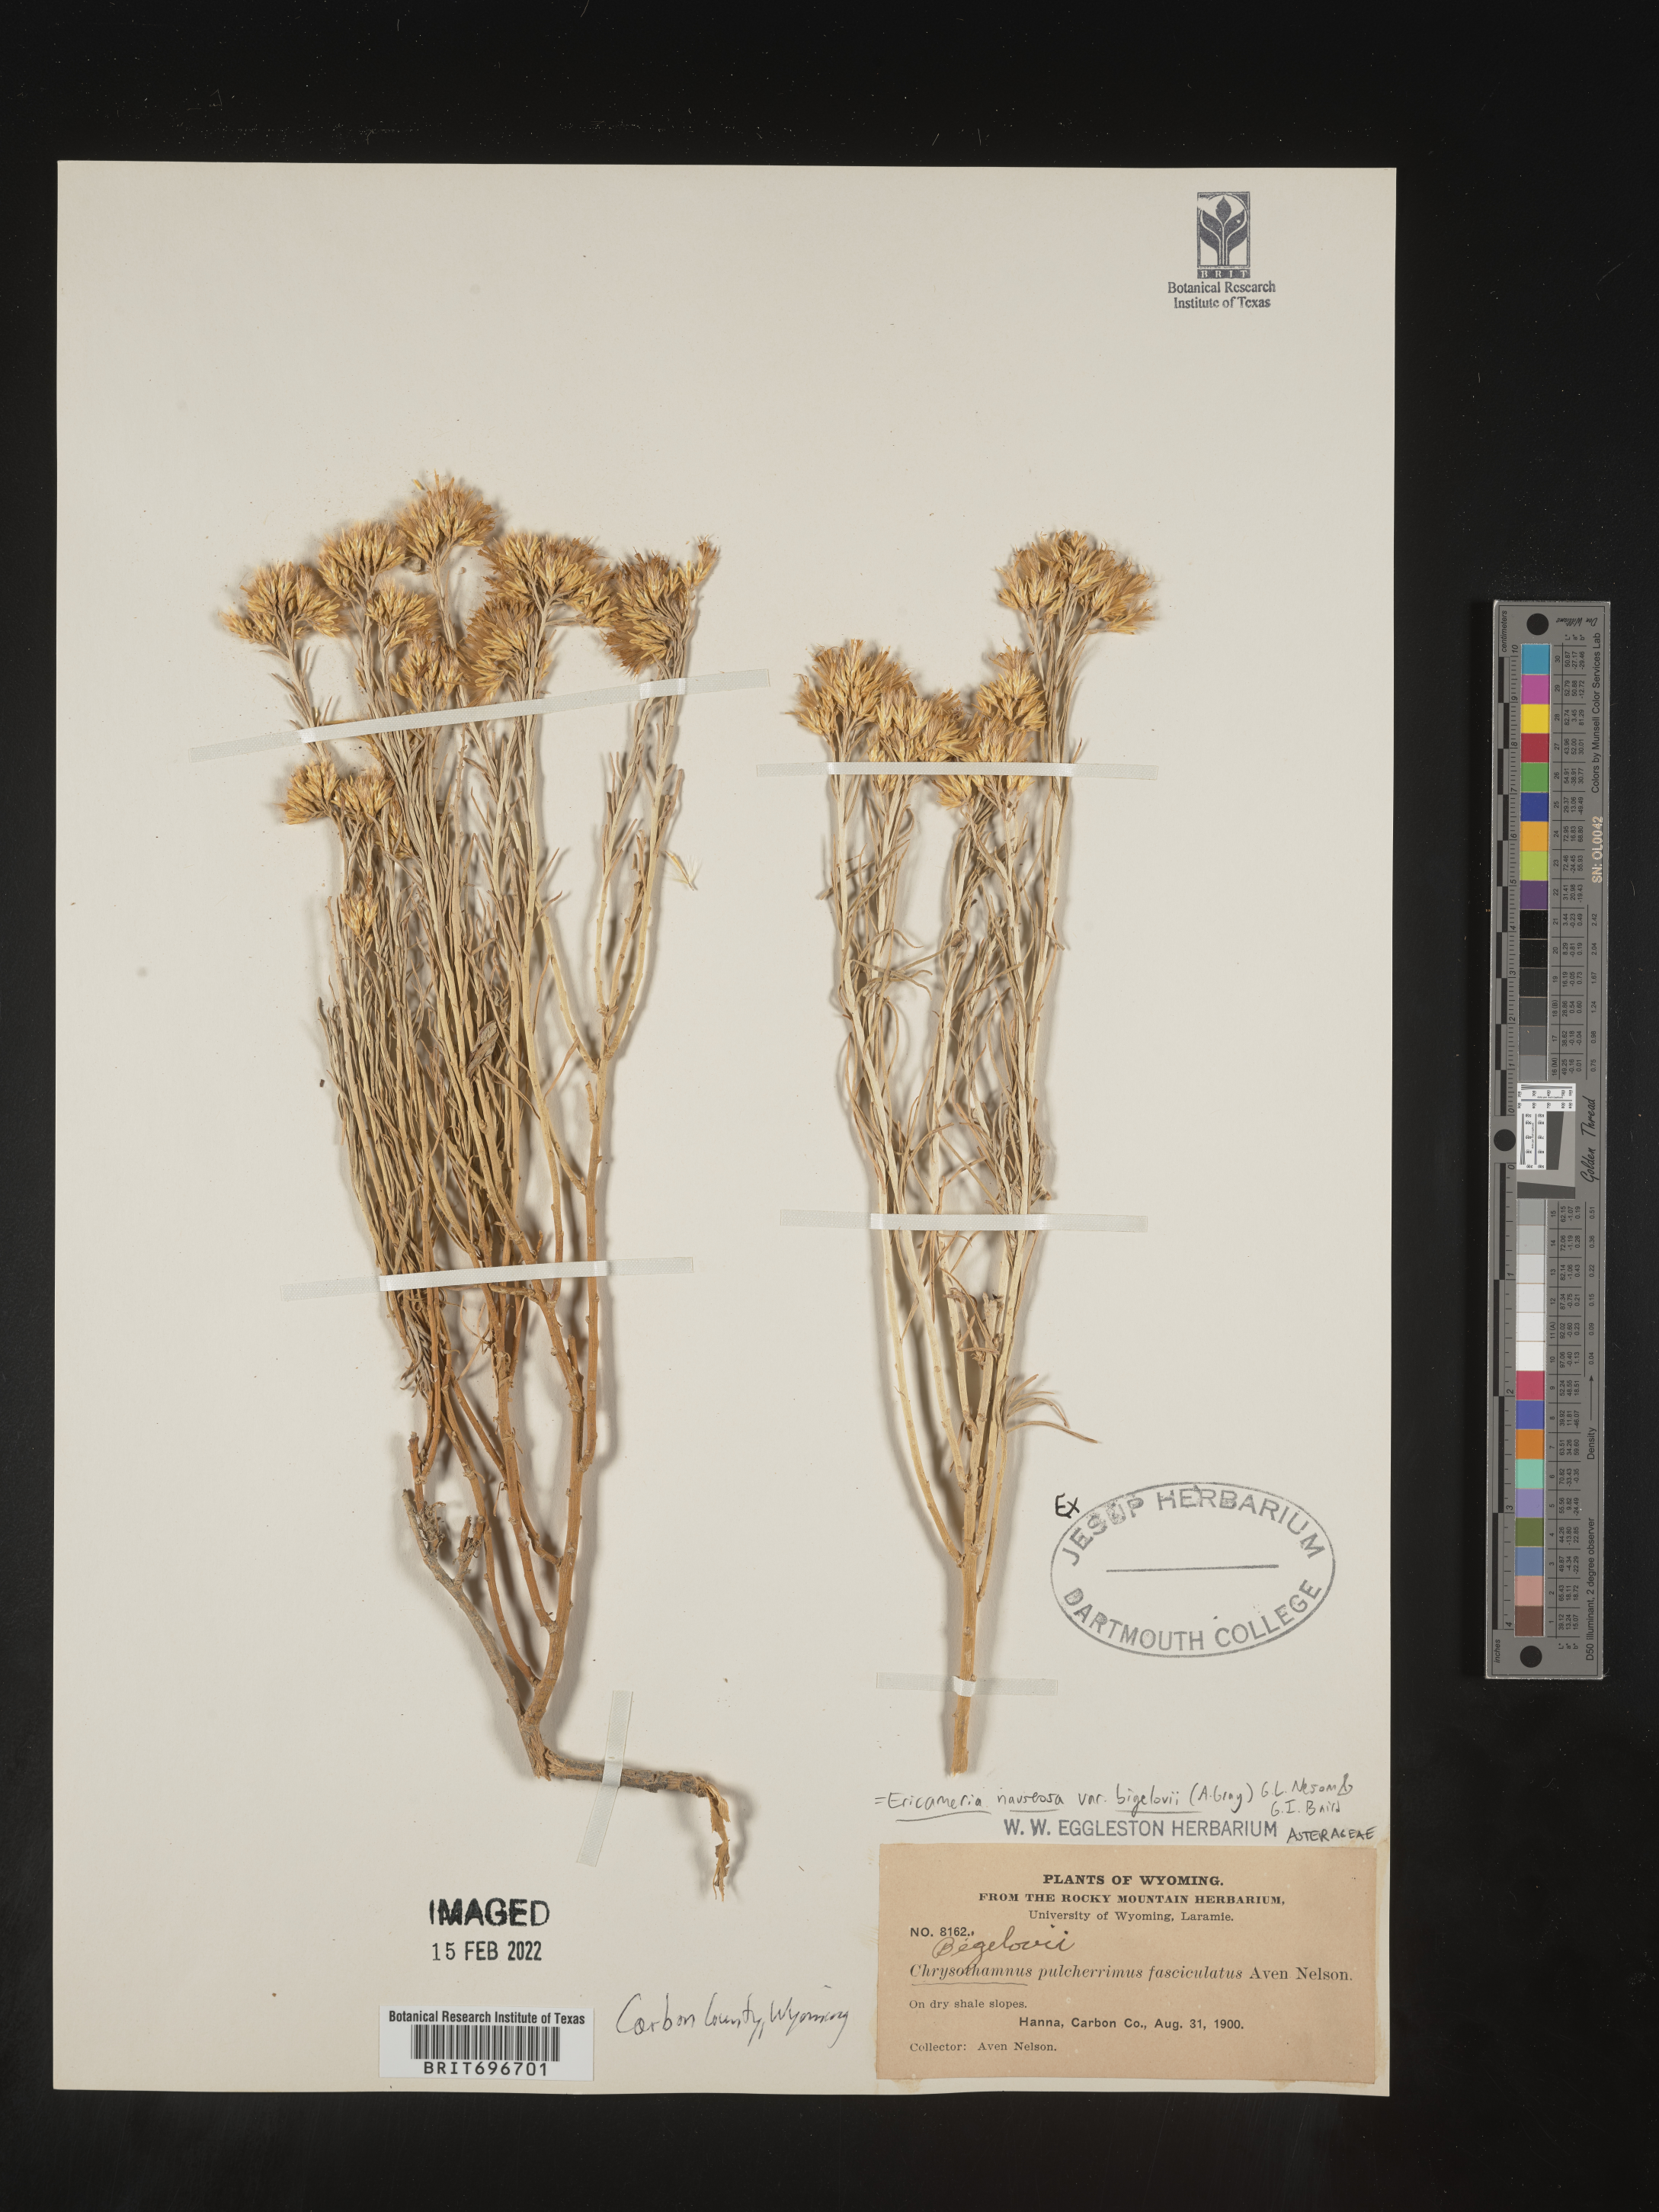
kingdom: Plantae
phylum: Tracheophyta
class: Magnoliopsida
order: Asterales
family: Asteraceae
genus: Ericameria
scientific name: Ericameria nauseosa
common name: Rubber rabbitbrush
